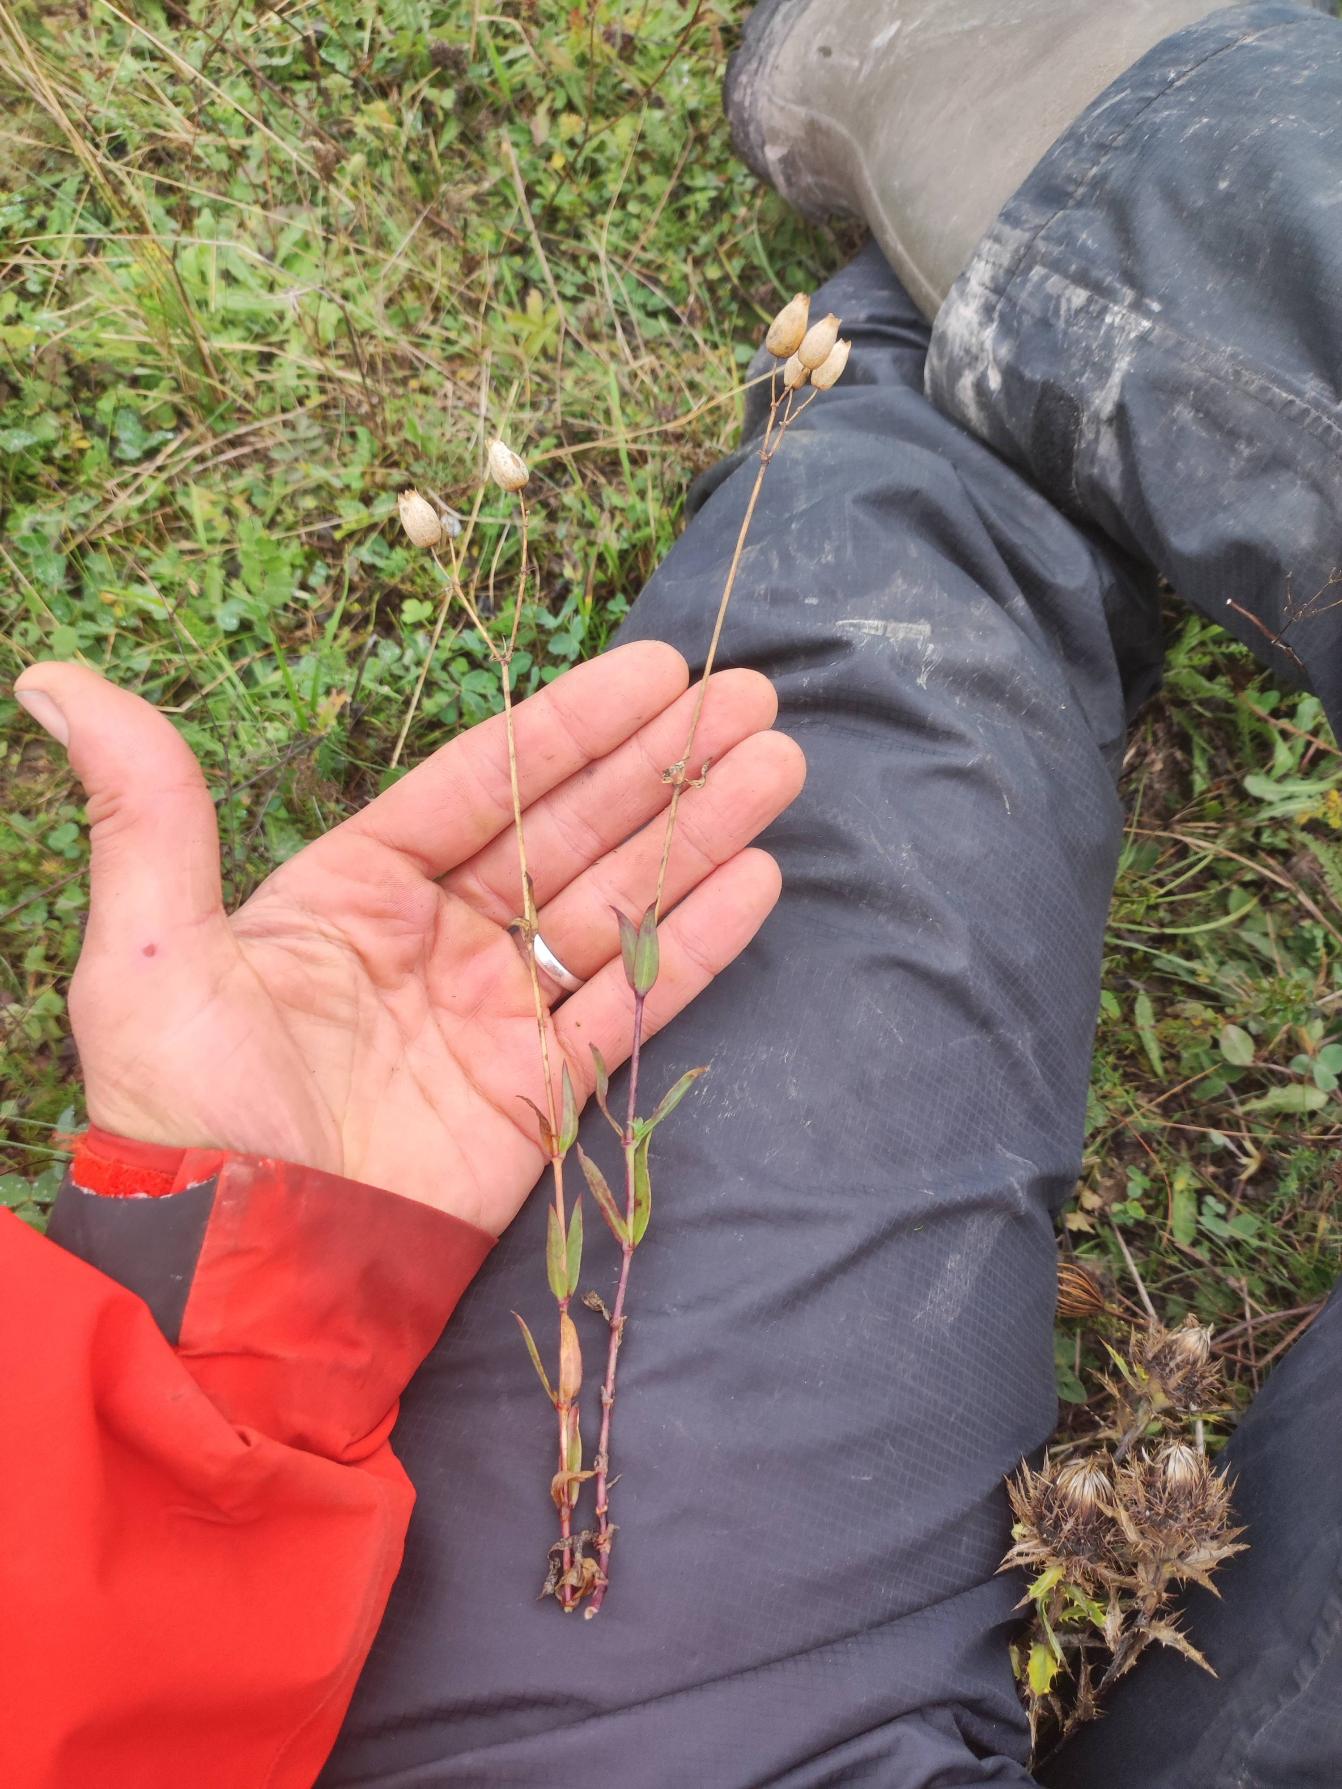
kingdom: Plantae
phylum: Tracheophyta
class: Magnoliopsida
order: Caryophyllales
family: Caryophyllaceae
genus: Silene
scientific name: Silene vulgaris
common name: Blæresmælde
